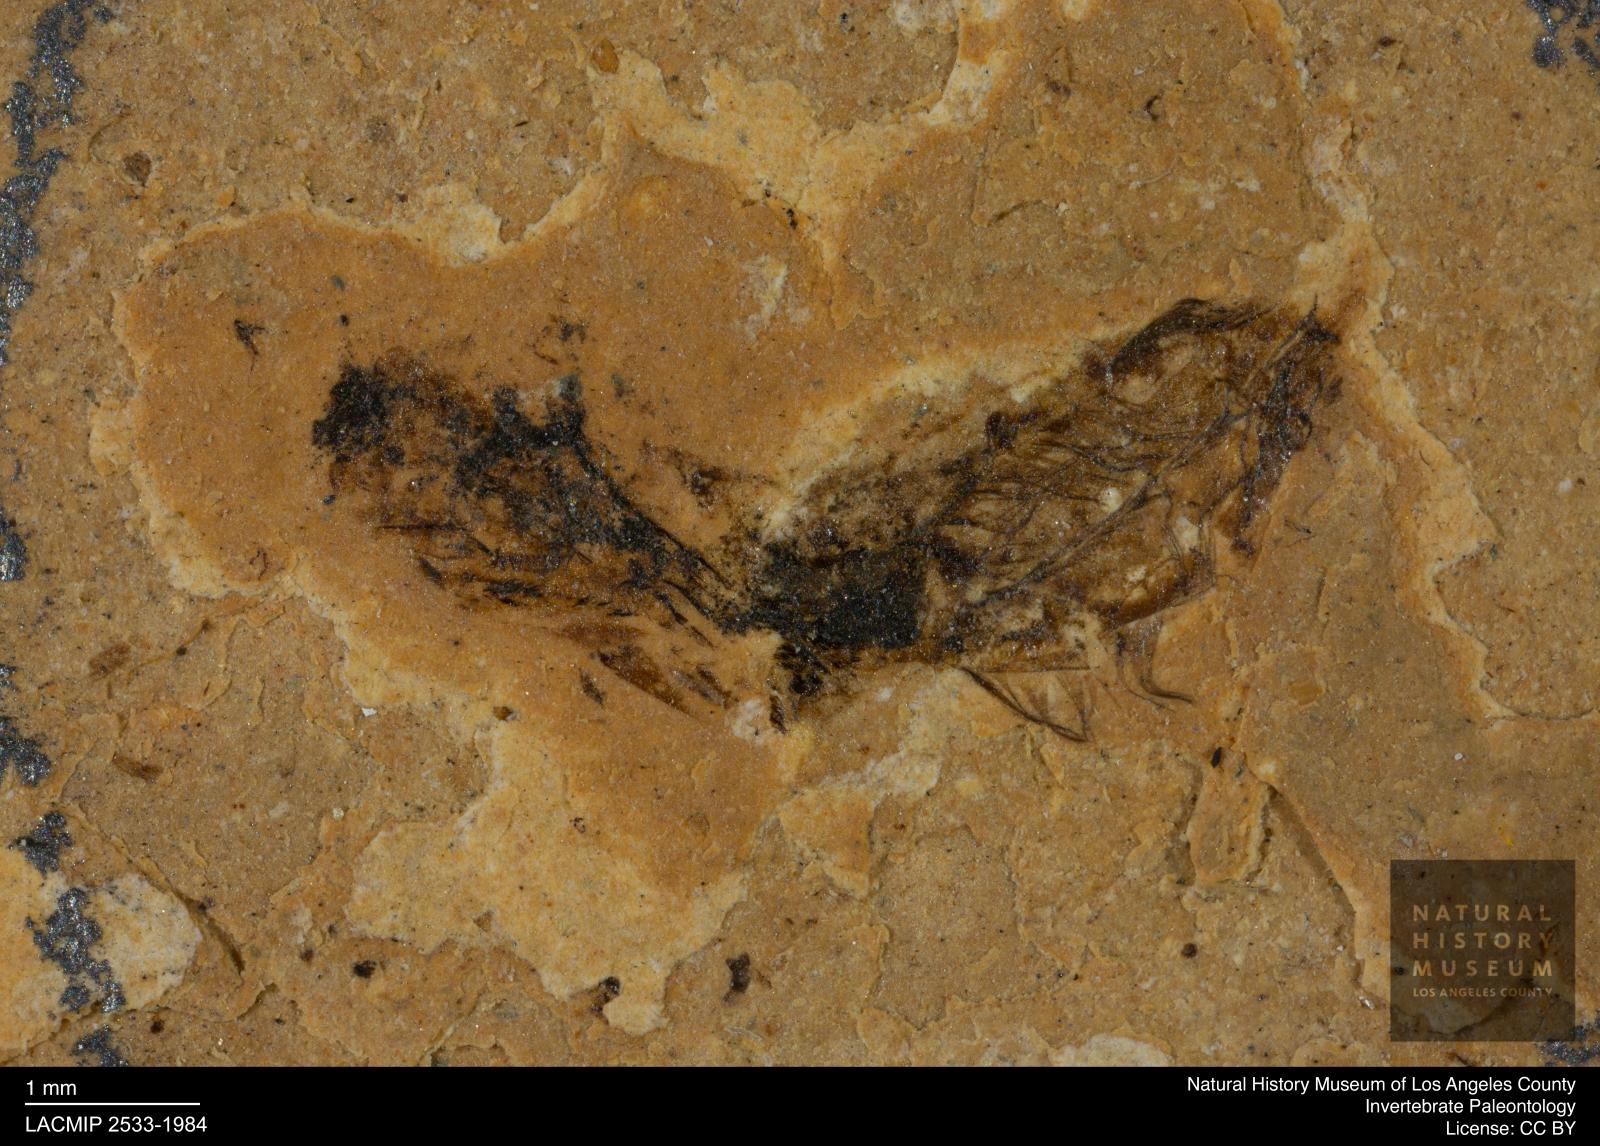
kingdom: Animalia
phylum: Arthropoda
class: Insecta
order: Hemiptera
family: Notonectidae
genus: Anisops
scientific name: Anisops Notonecta deichmuelleri
